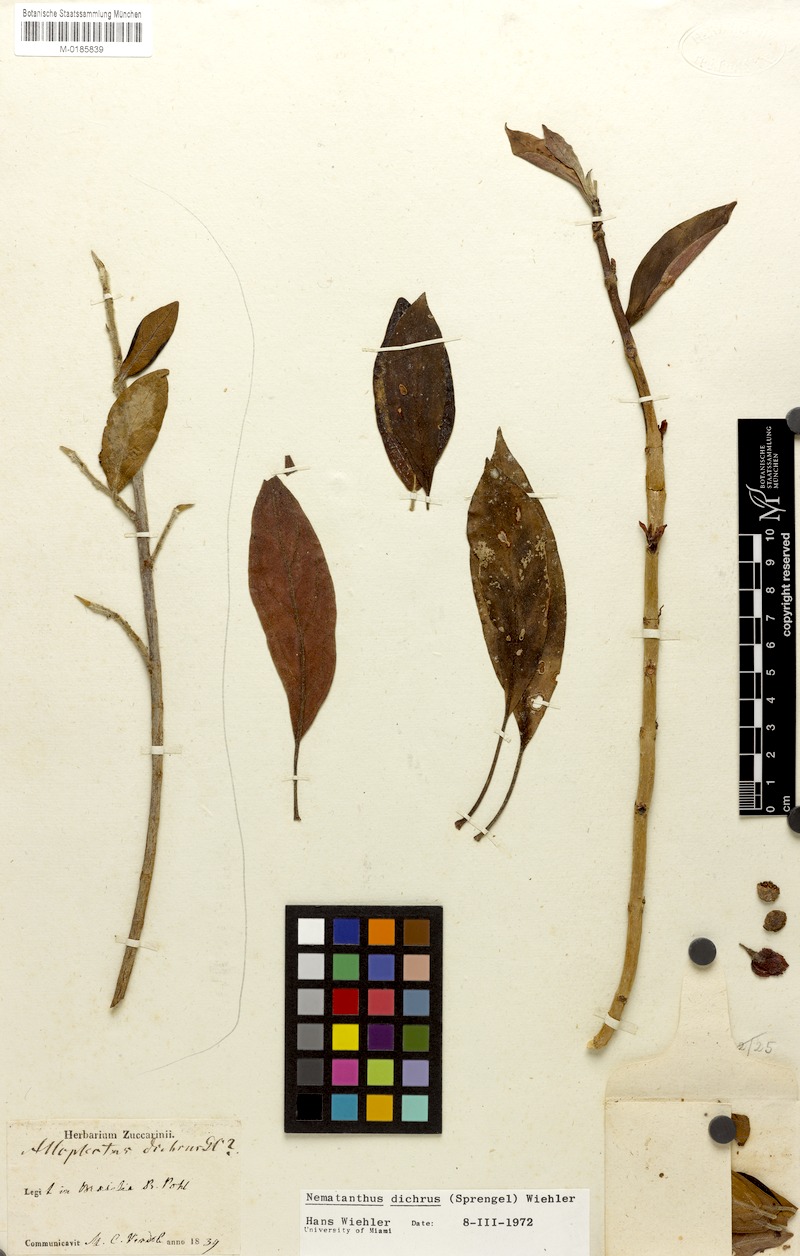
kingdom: Plantae
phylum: Tracheophyta
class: Magnoliopsida
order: Lamiales
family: Gesneriaceae
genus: Nematanthus
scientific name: Nematanthus lanceolatus
